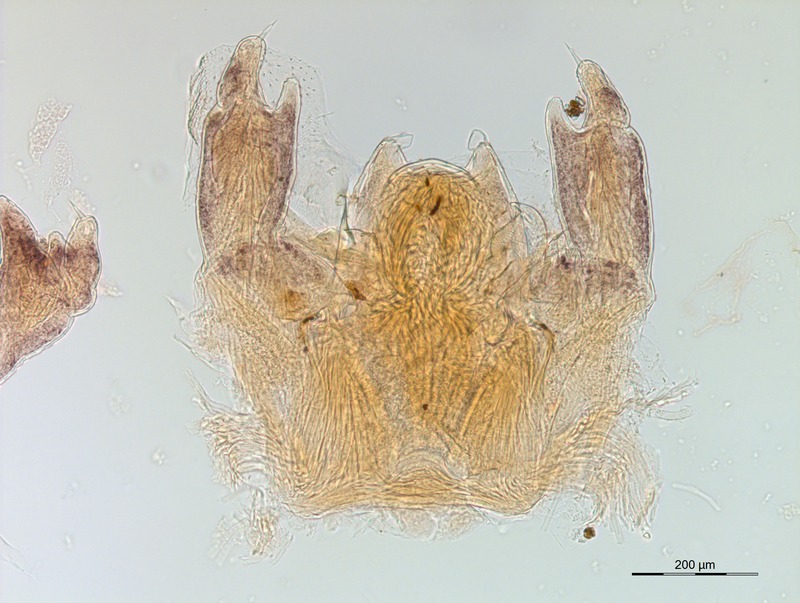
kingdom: Animalia
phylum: Arthropoda
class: Diplopoda
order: Glomerida
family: Glomeridellidae
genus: Glomeridella
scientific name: Glomeridella kervillei
